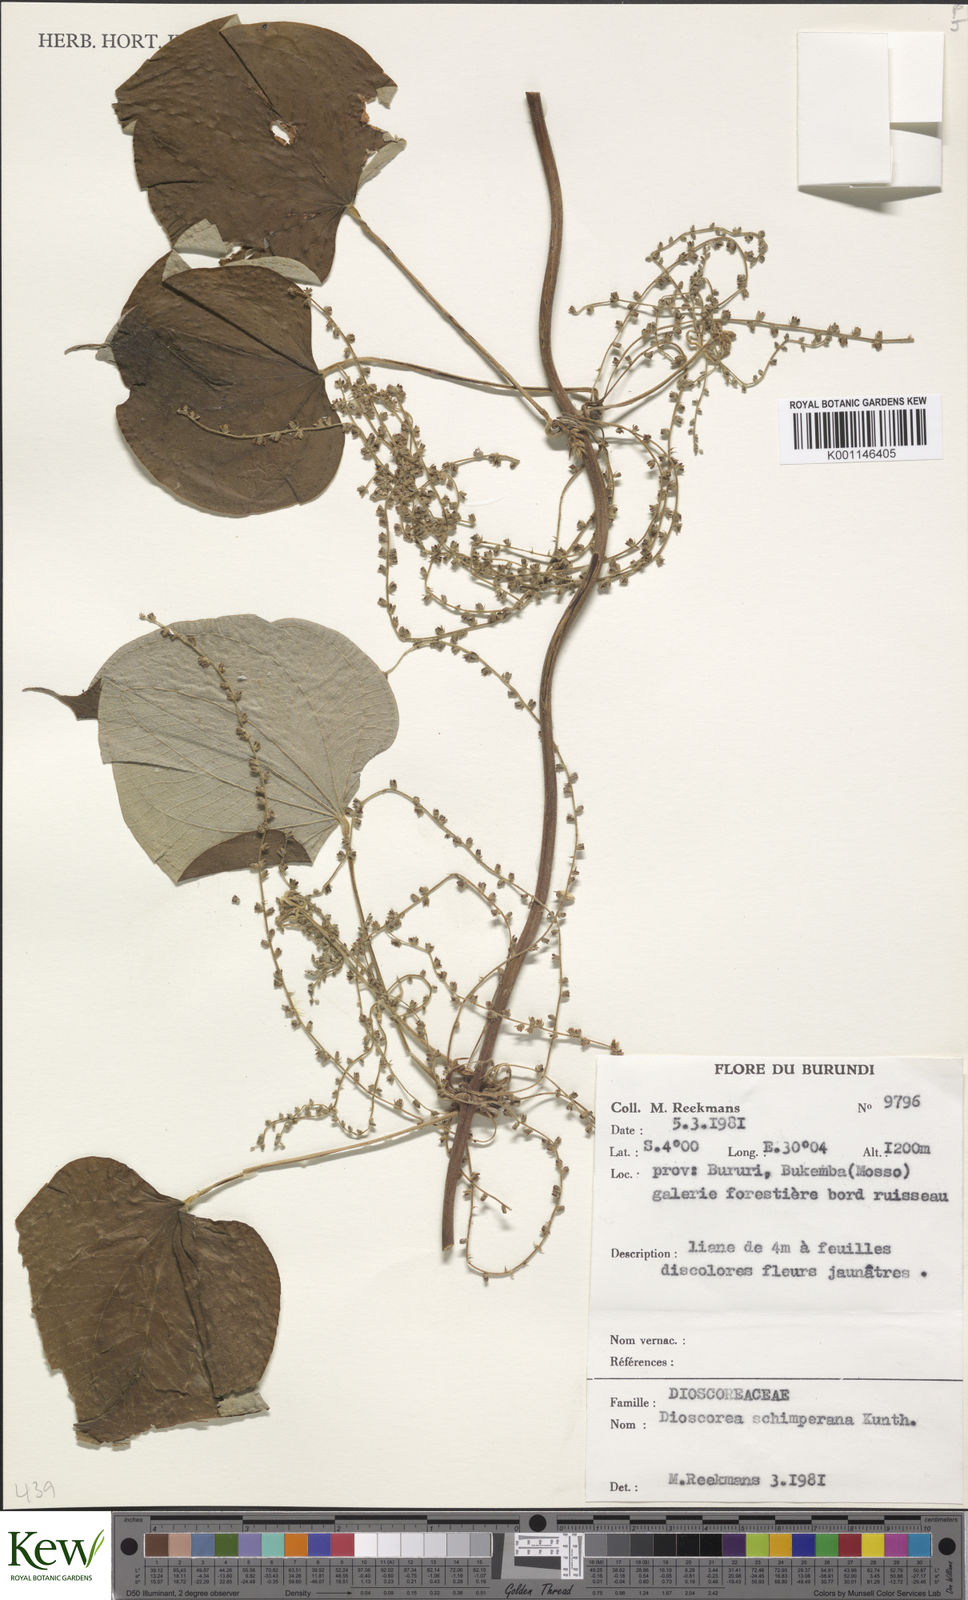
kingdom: Plantae
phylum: Tracheophyta
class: Liliopsida
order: Dioscoreales
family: Dioscoreaceae
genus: Dioscorea
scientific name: Dioscorea schimperiana
